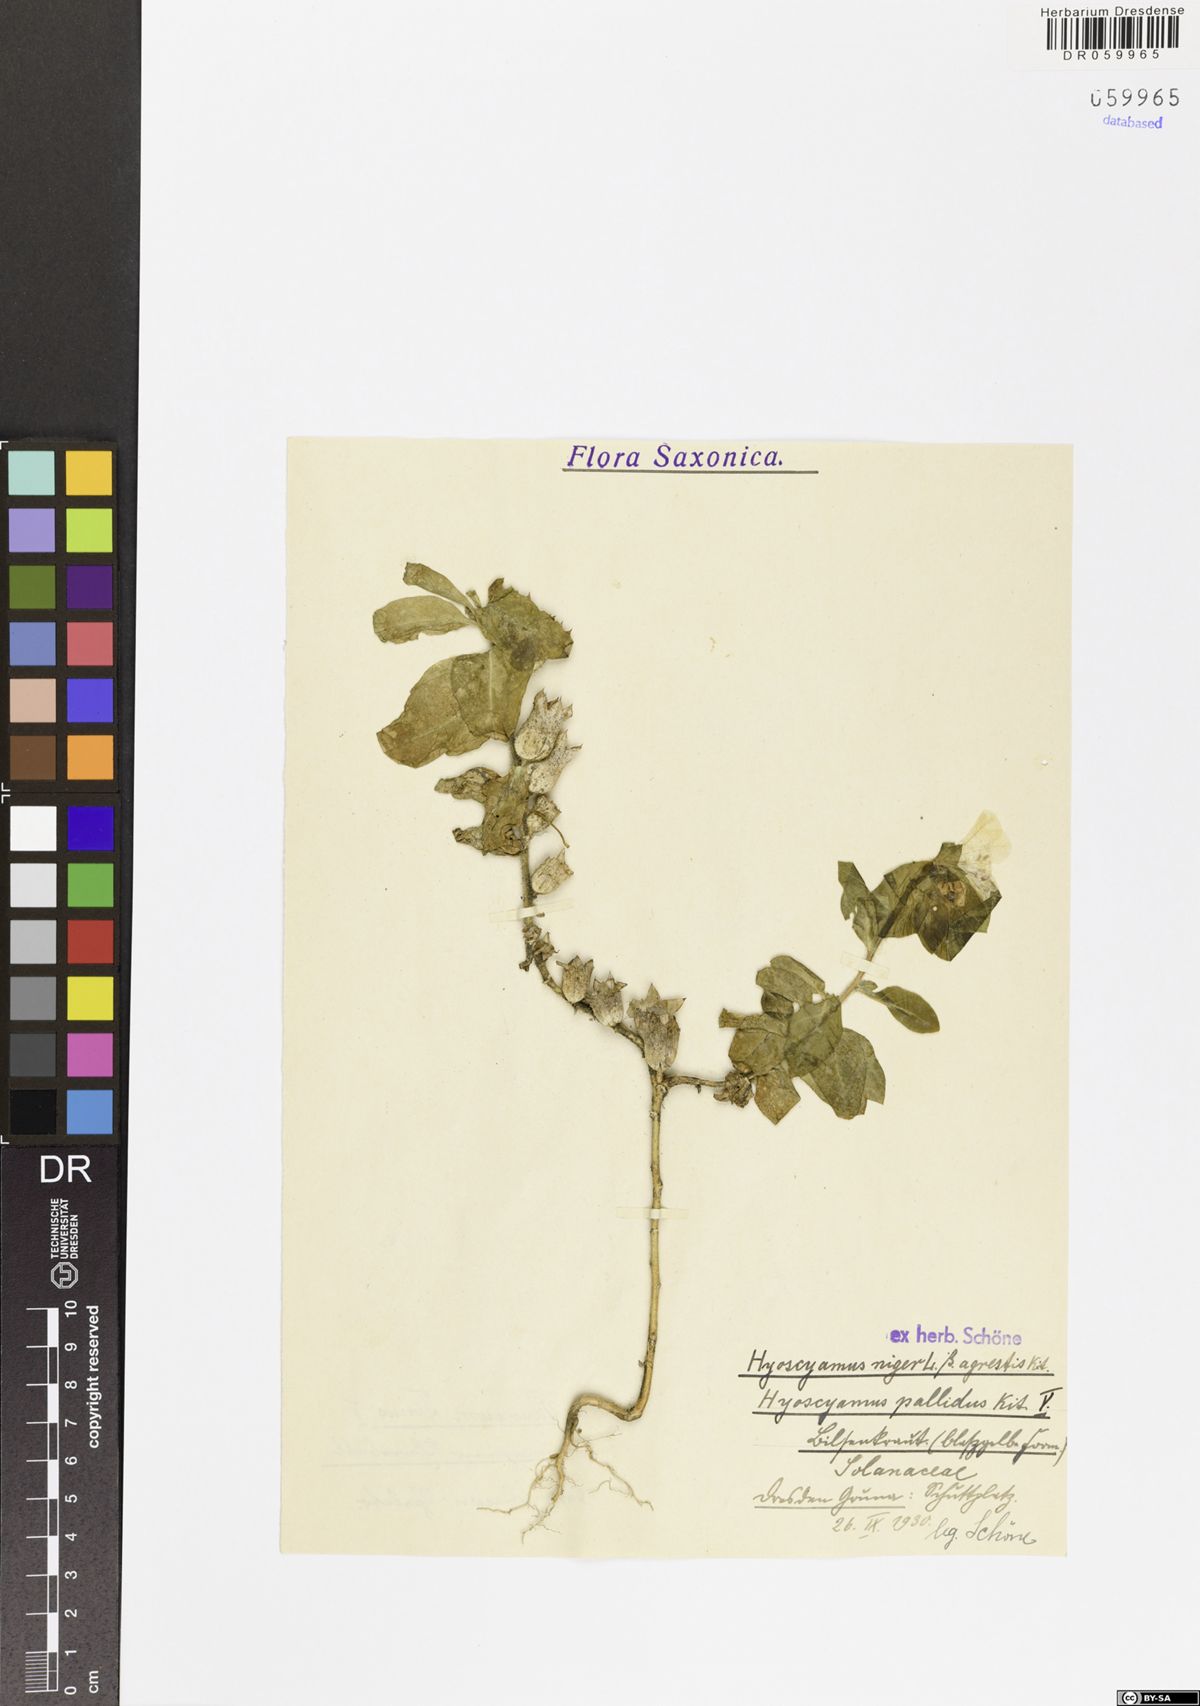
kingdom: Plantae
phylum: Tracheophyta
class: Magnoliopsida
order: Solanales
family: Solanaceae
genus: Hyoscyamus
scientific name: Hyoscyamus niger
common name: Henbane
